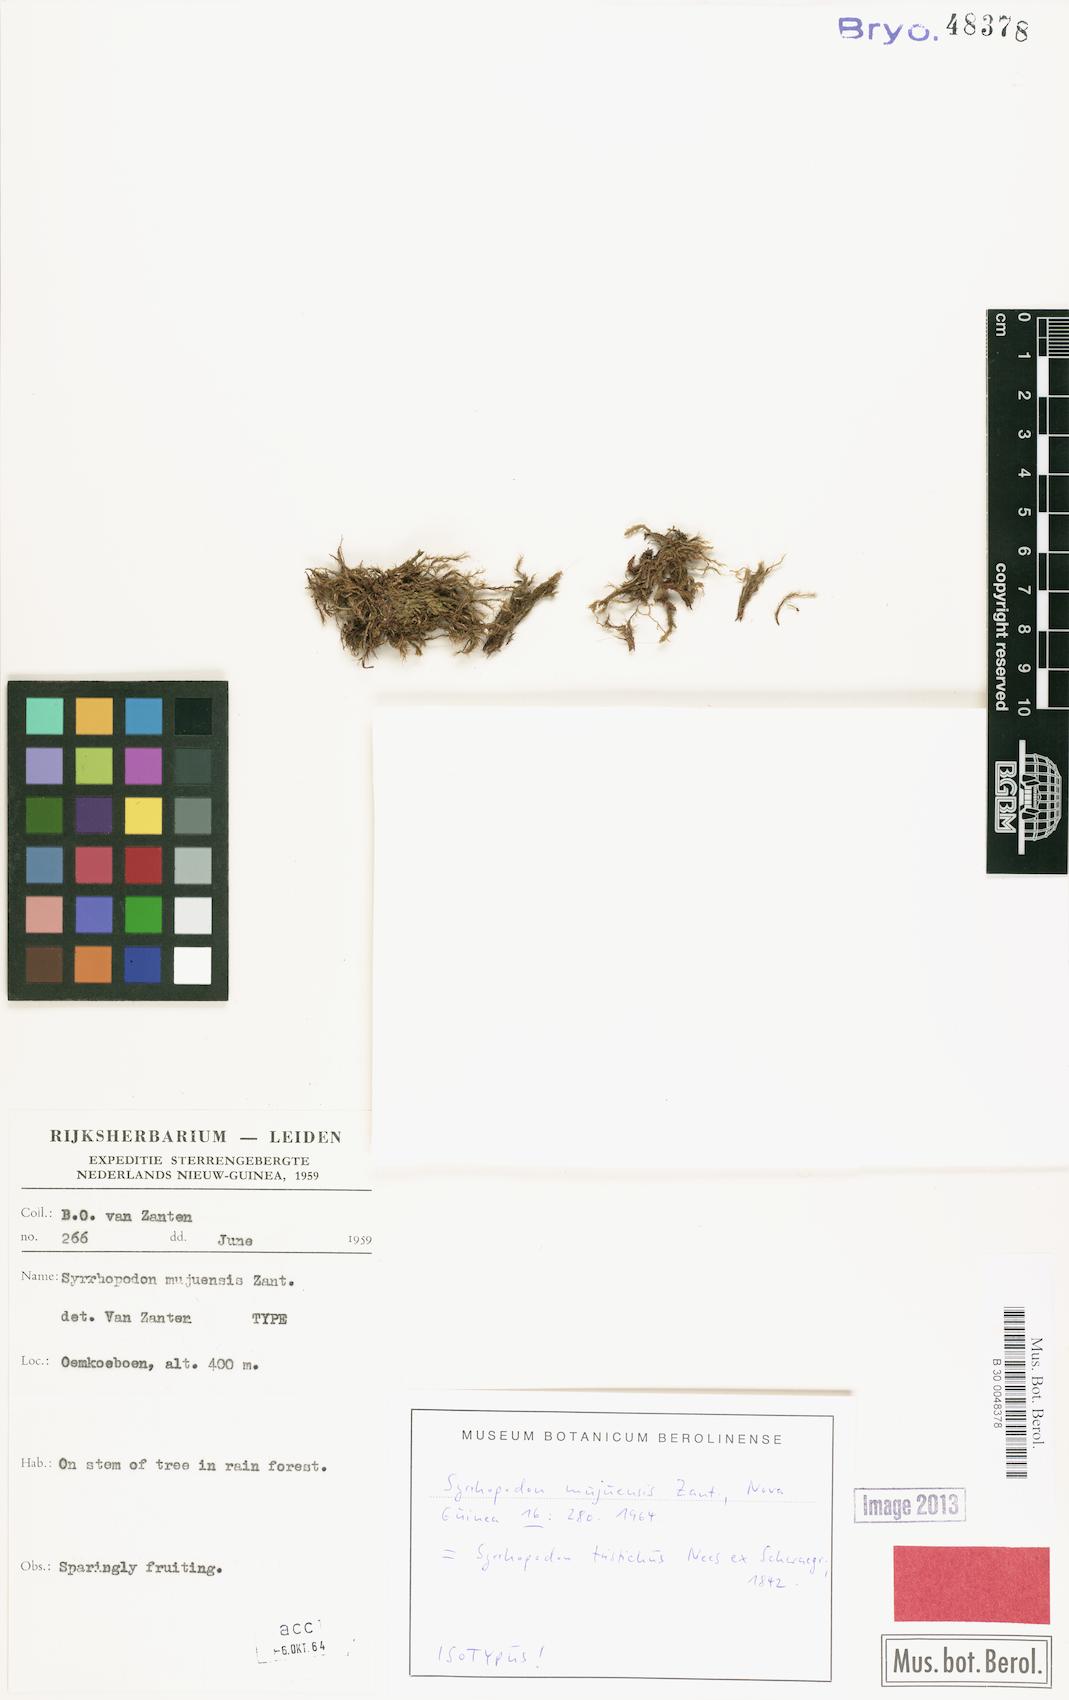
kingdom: Plantae
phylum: Bryophyta
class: Bryopsida
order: Dicranales
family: Calymperaceae
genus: Syrrhopodon
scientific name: Syrrhopodon tristichus
